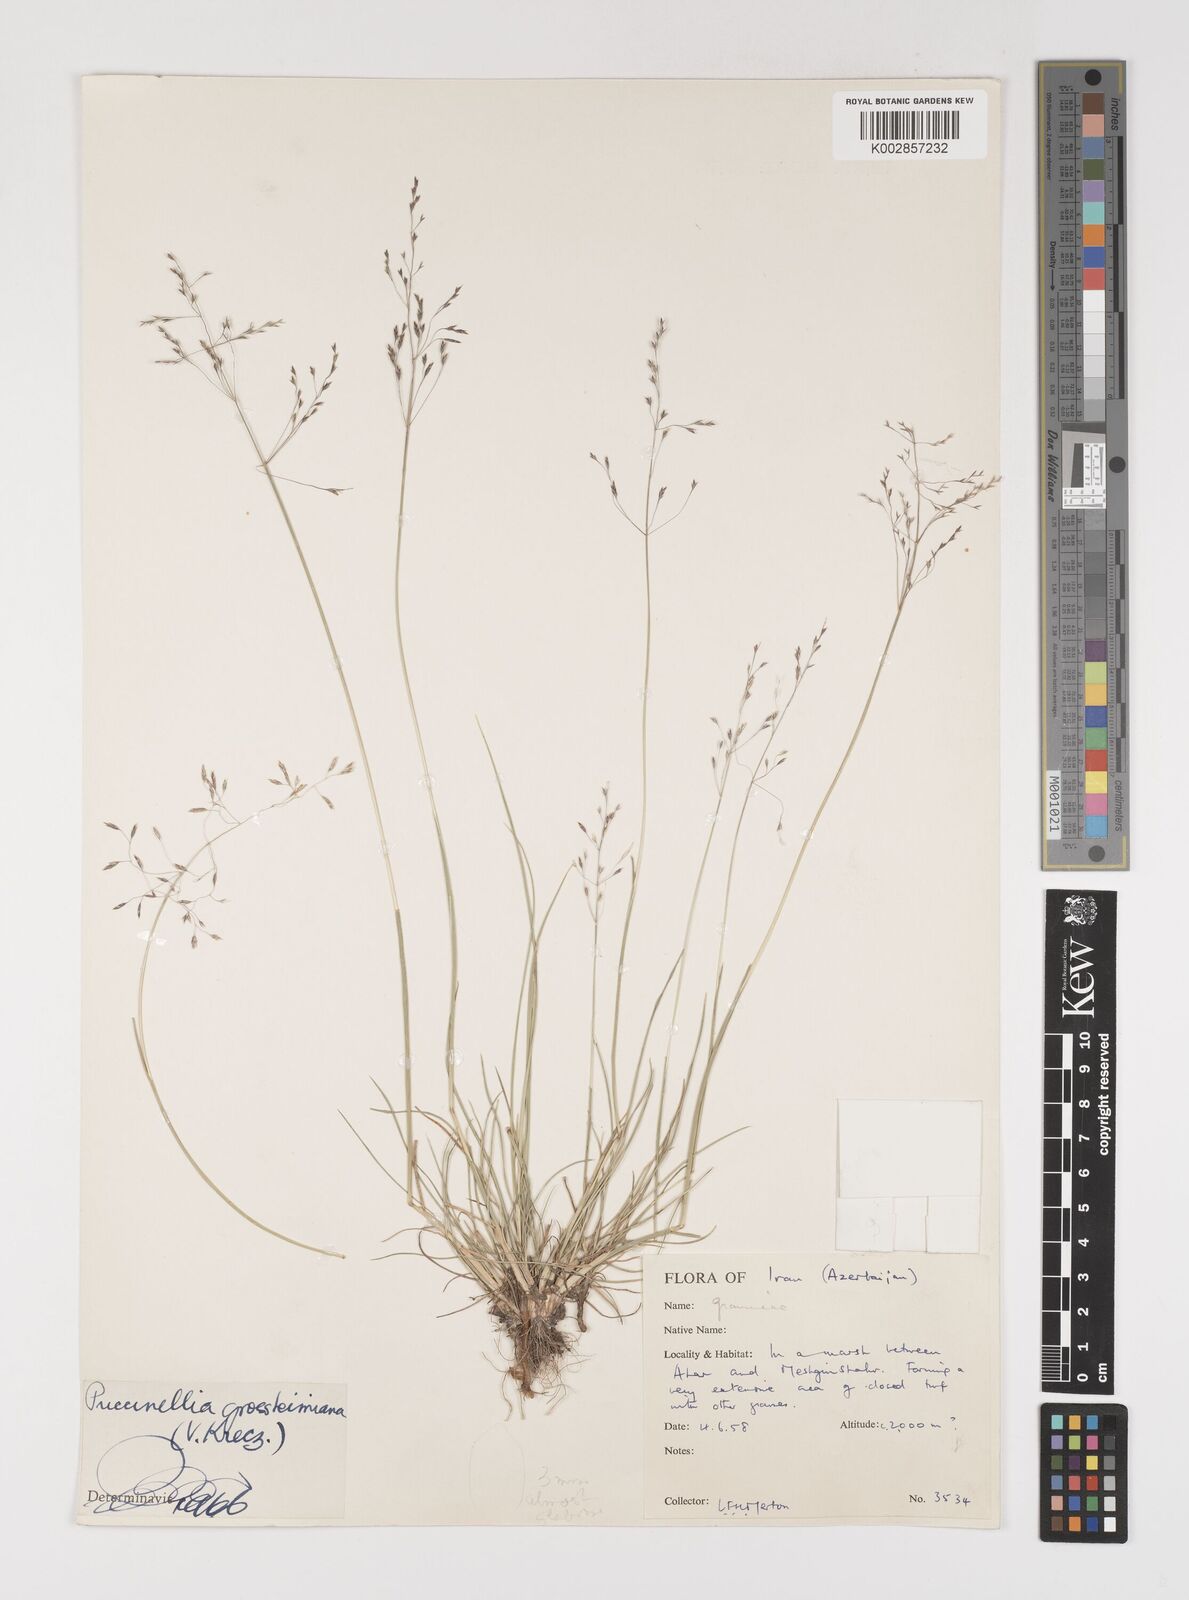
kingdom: Plantae
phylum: Tracheophyta
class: Liliopsida
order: Poales
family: Poaceae
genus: Puccinellia
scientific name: Puccinellia grossheimiana
